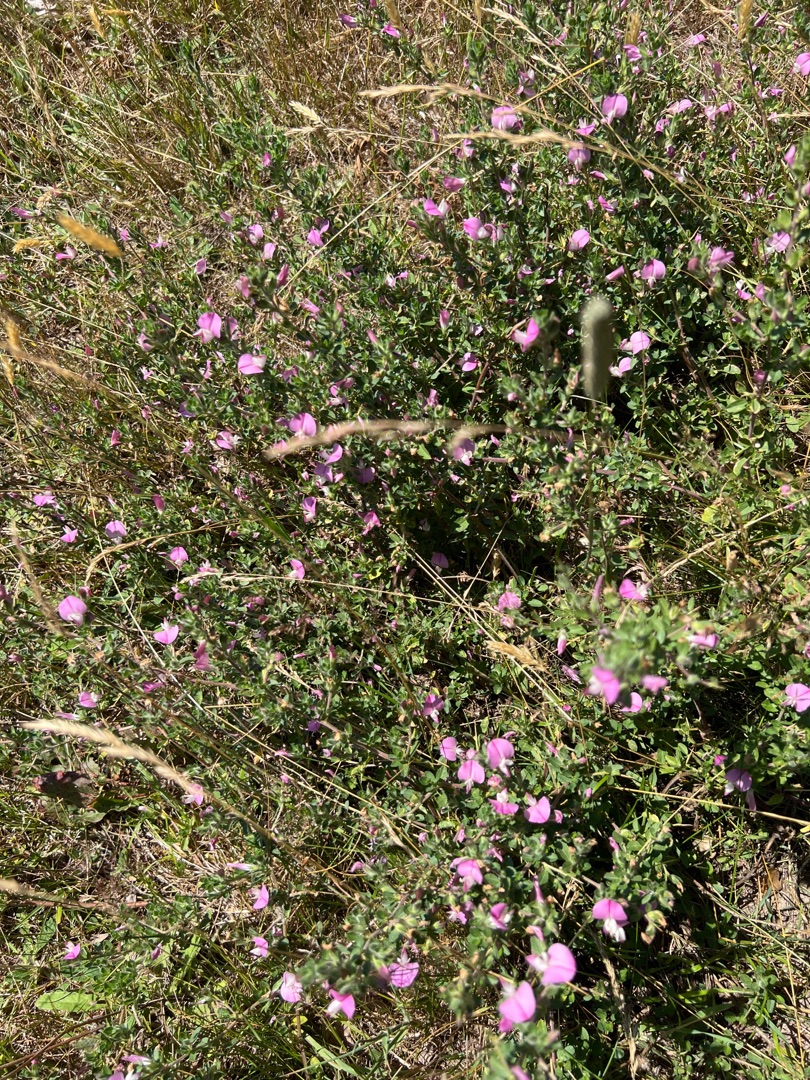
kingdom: Plantae
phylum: Tracheophyta
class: Magnoliopsida
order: Fabales
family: Fabaceae
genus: Ononis
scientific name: Ononis spinosa
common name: Mark-krageklo
